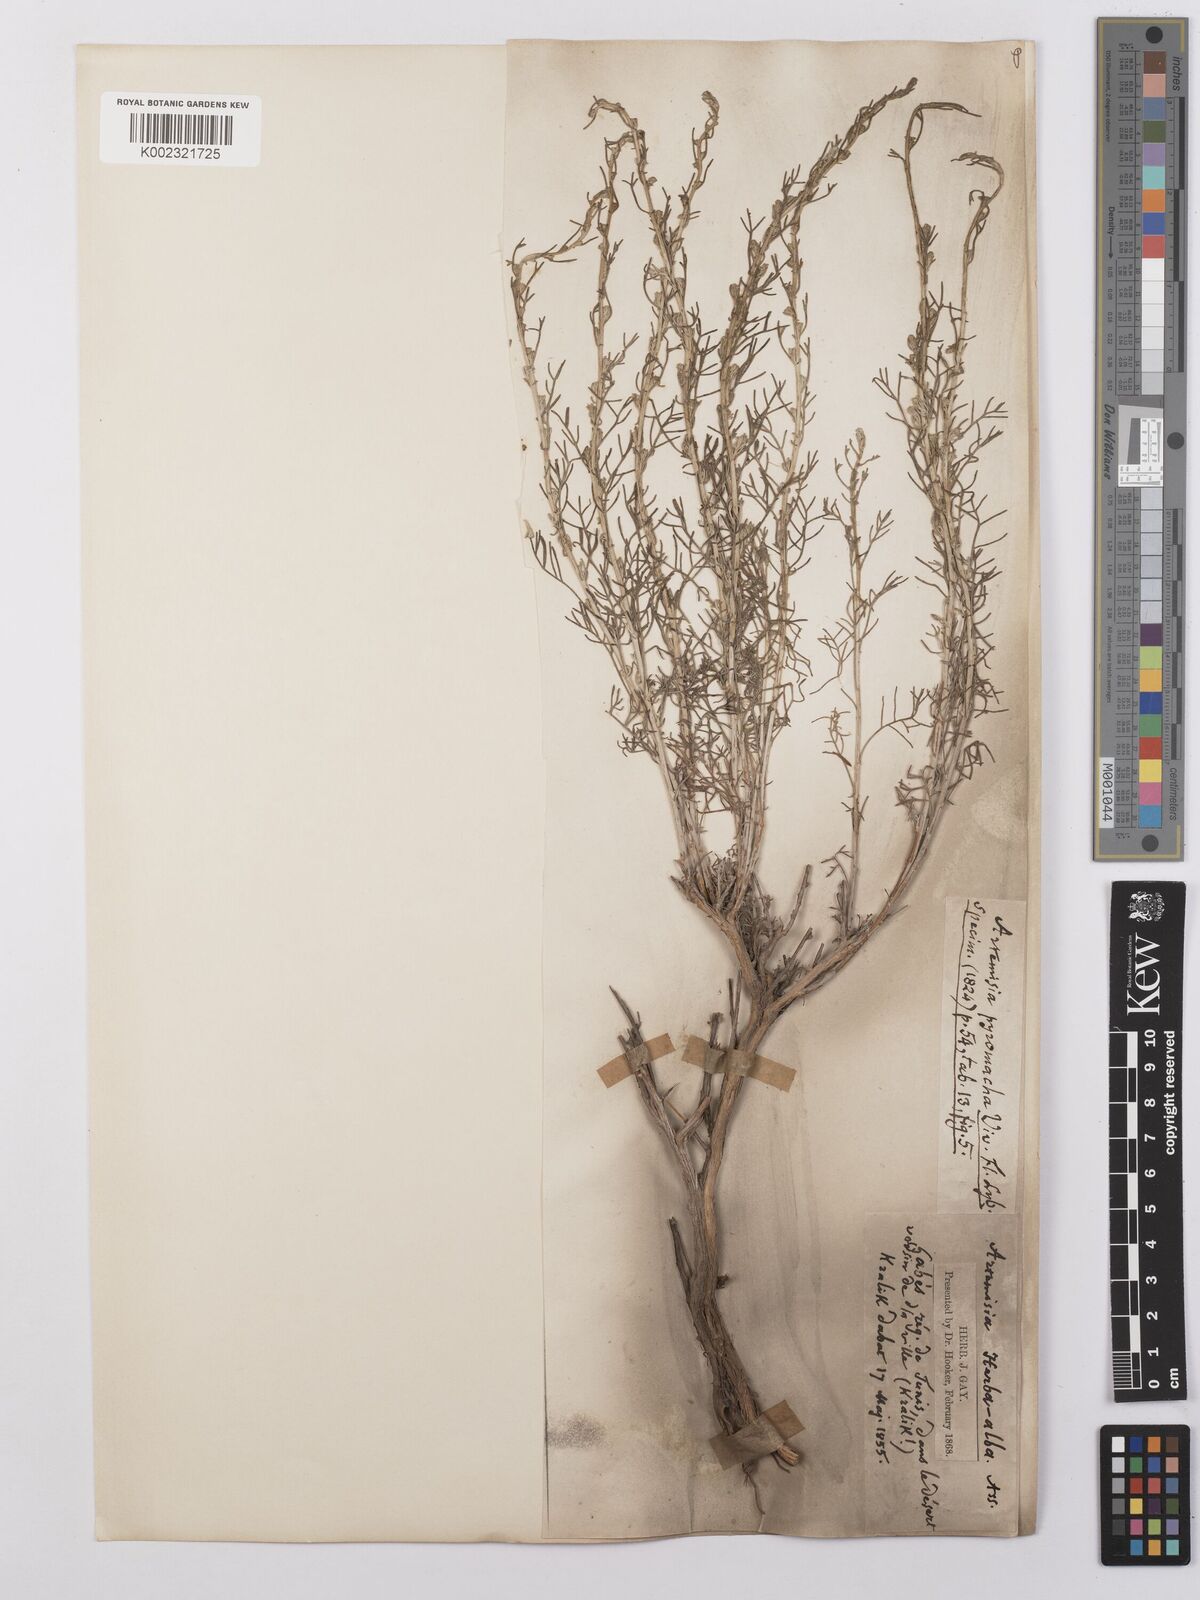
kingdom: Plantae
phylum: Tracheophyta
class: Magnoliopsida
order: Asterales
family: Asteraceae
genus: Artemisia
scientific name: Artemisia herba-alba
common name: White wormwood
